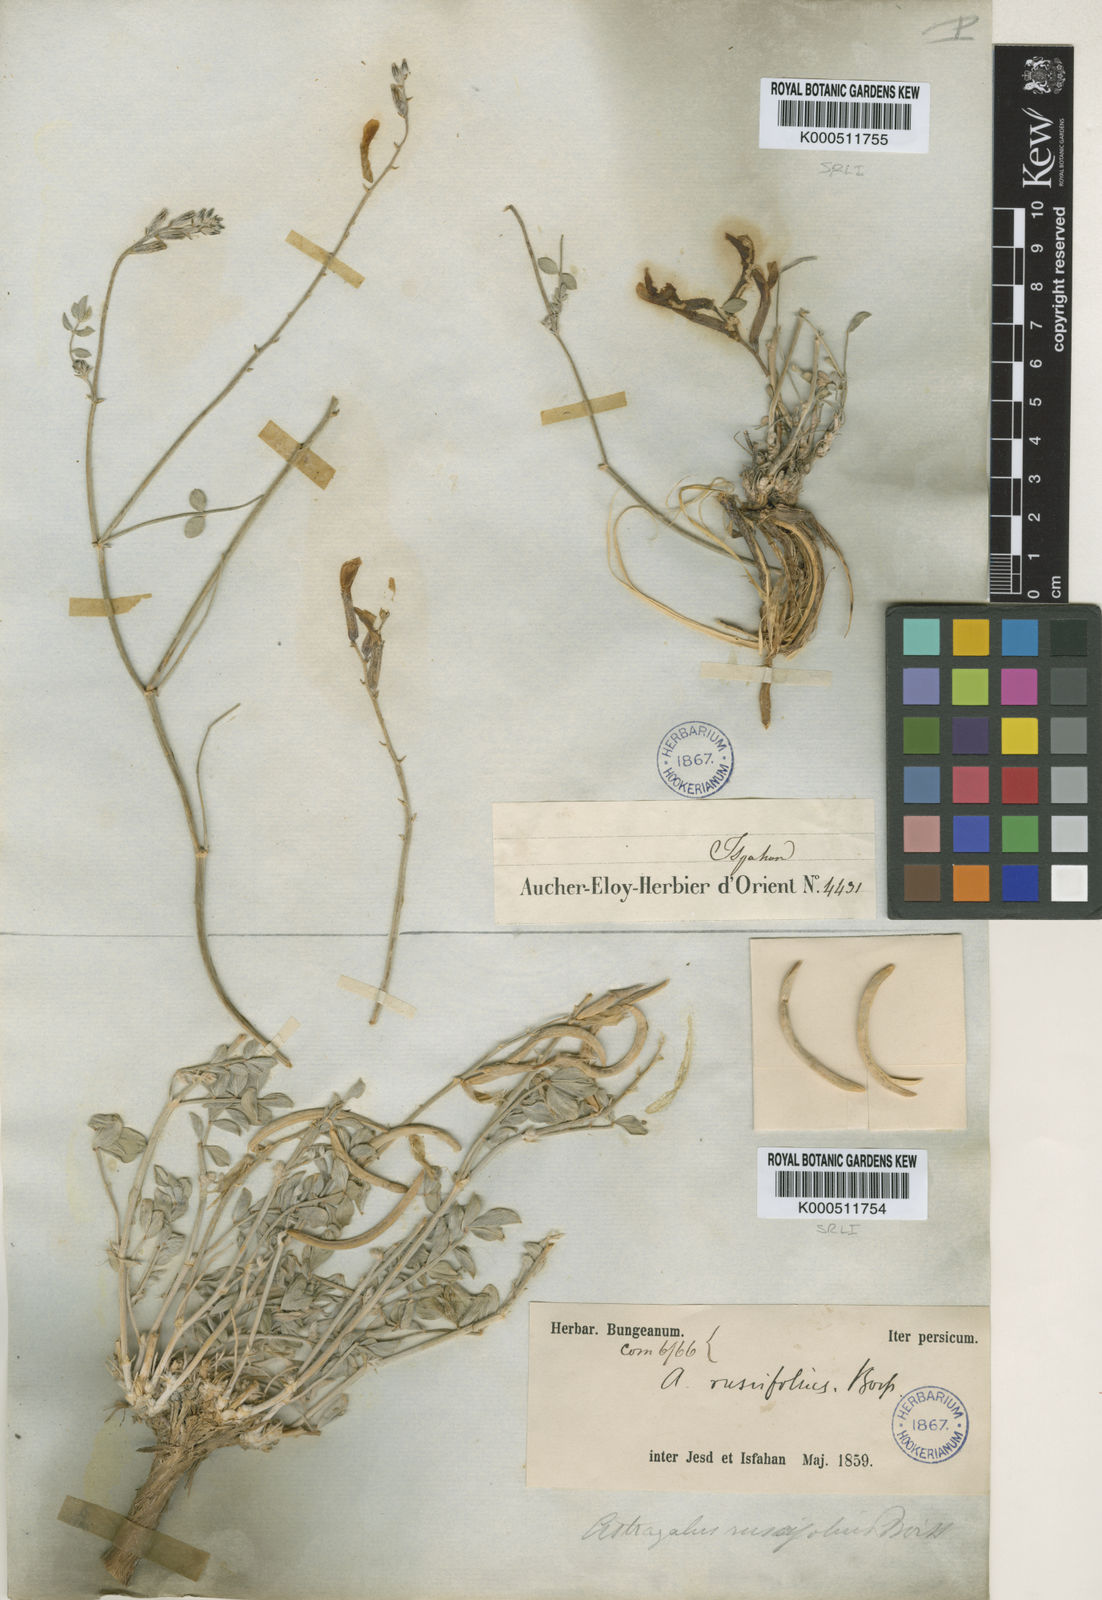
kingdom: Plantae
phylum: Tracheophyta
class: Magnoliopsida
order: Fabales
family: Fabaceae
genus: Astragalus
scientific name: Astragalus
